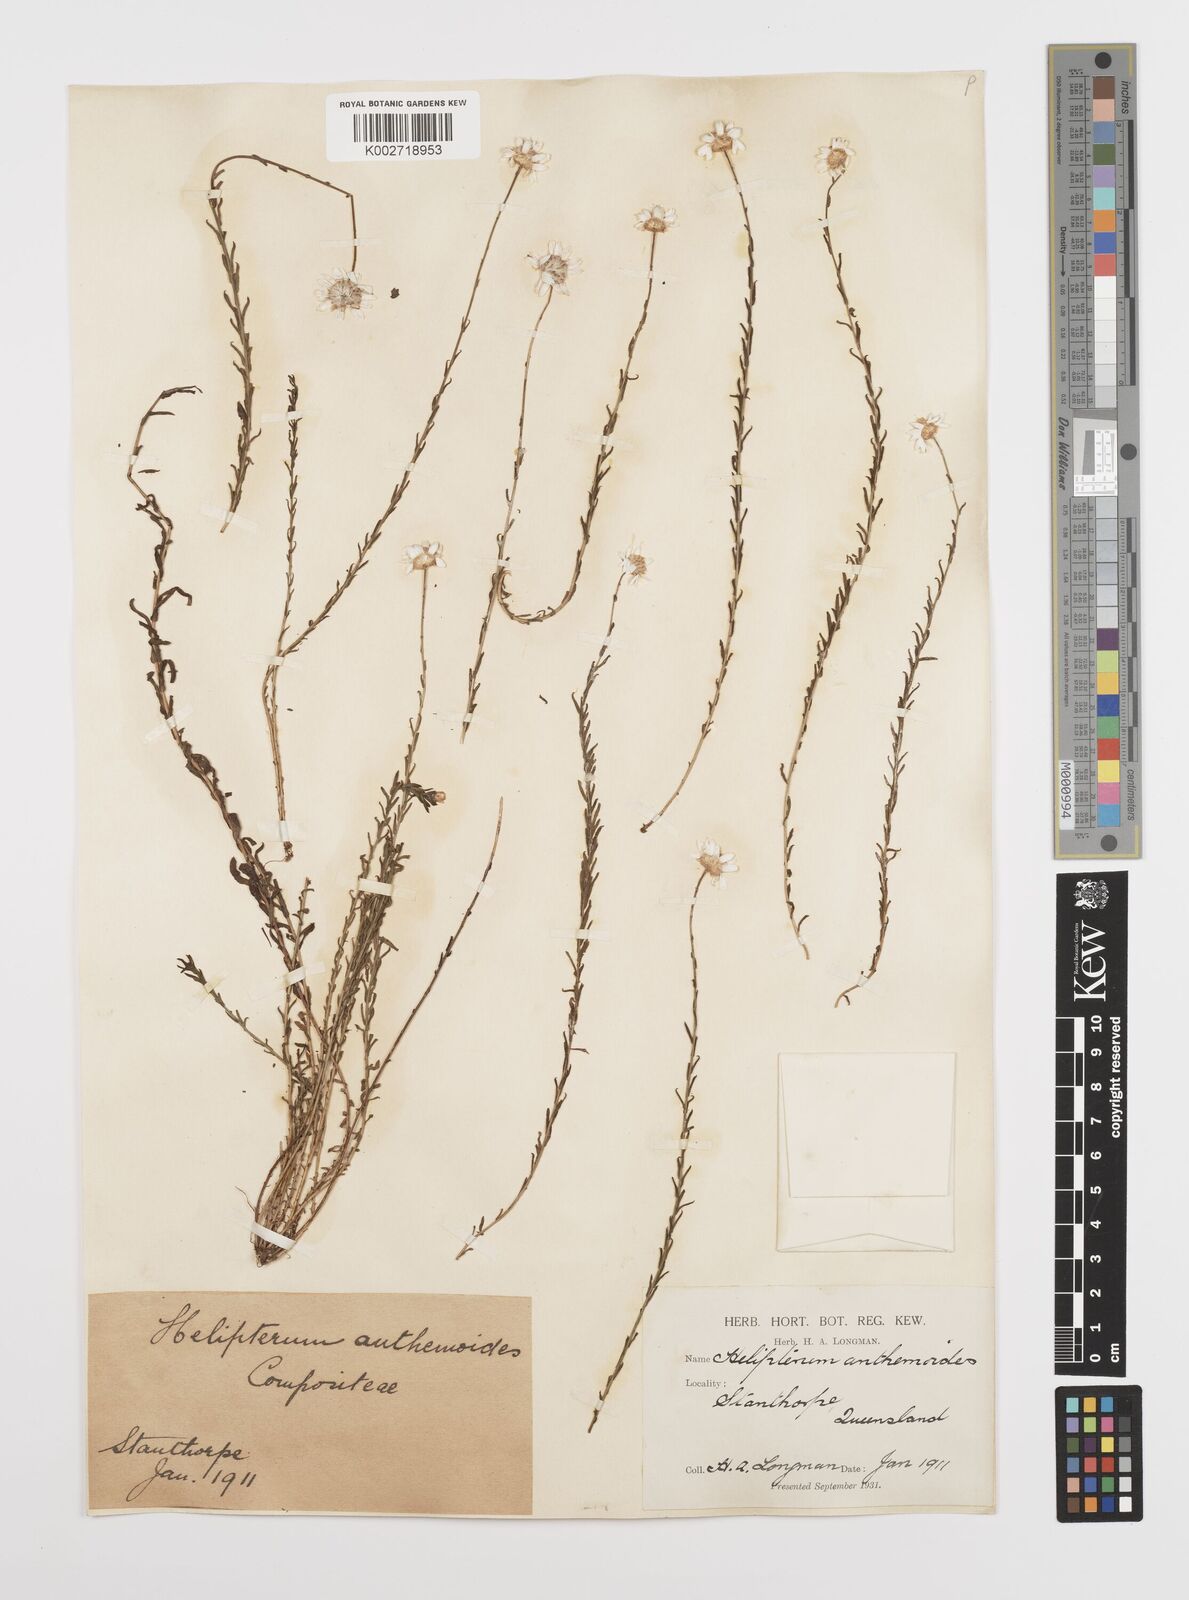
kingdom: Plantae
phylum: Tracheophyta
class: Magnoliopsida
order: Asterales
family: Asteraceae
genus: Rhodanthe
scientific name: Rhodanthe anthemoides
